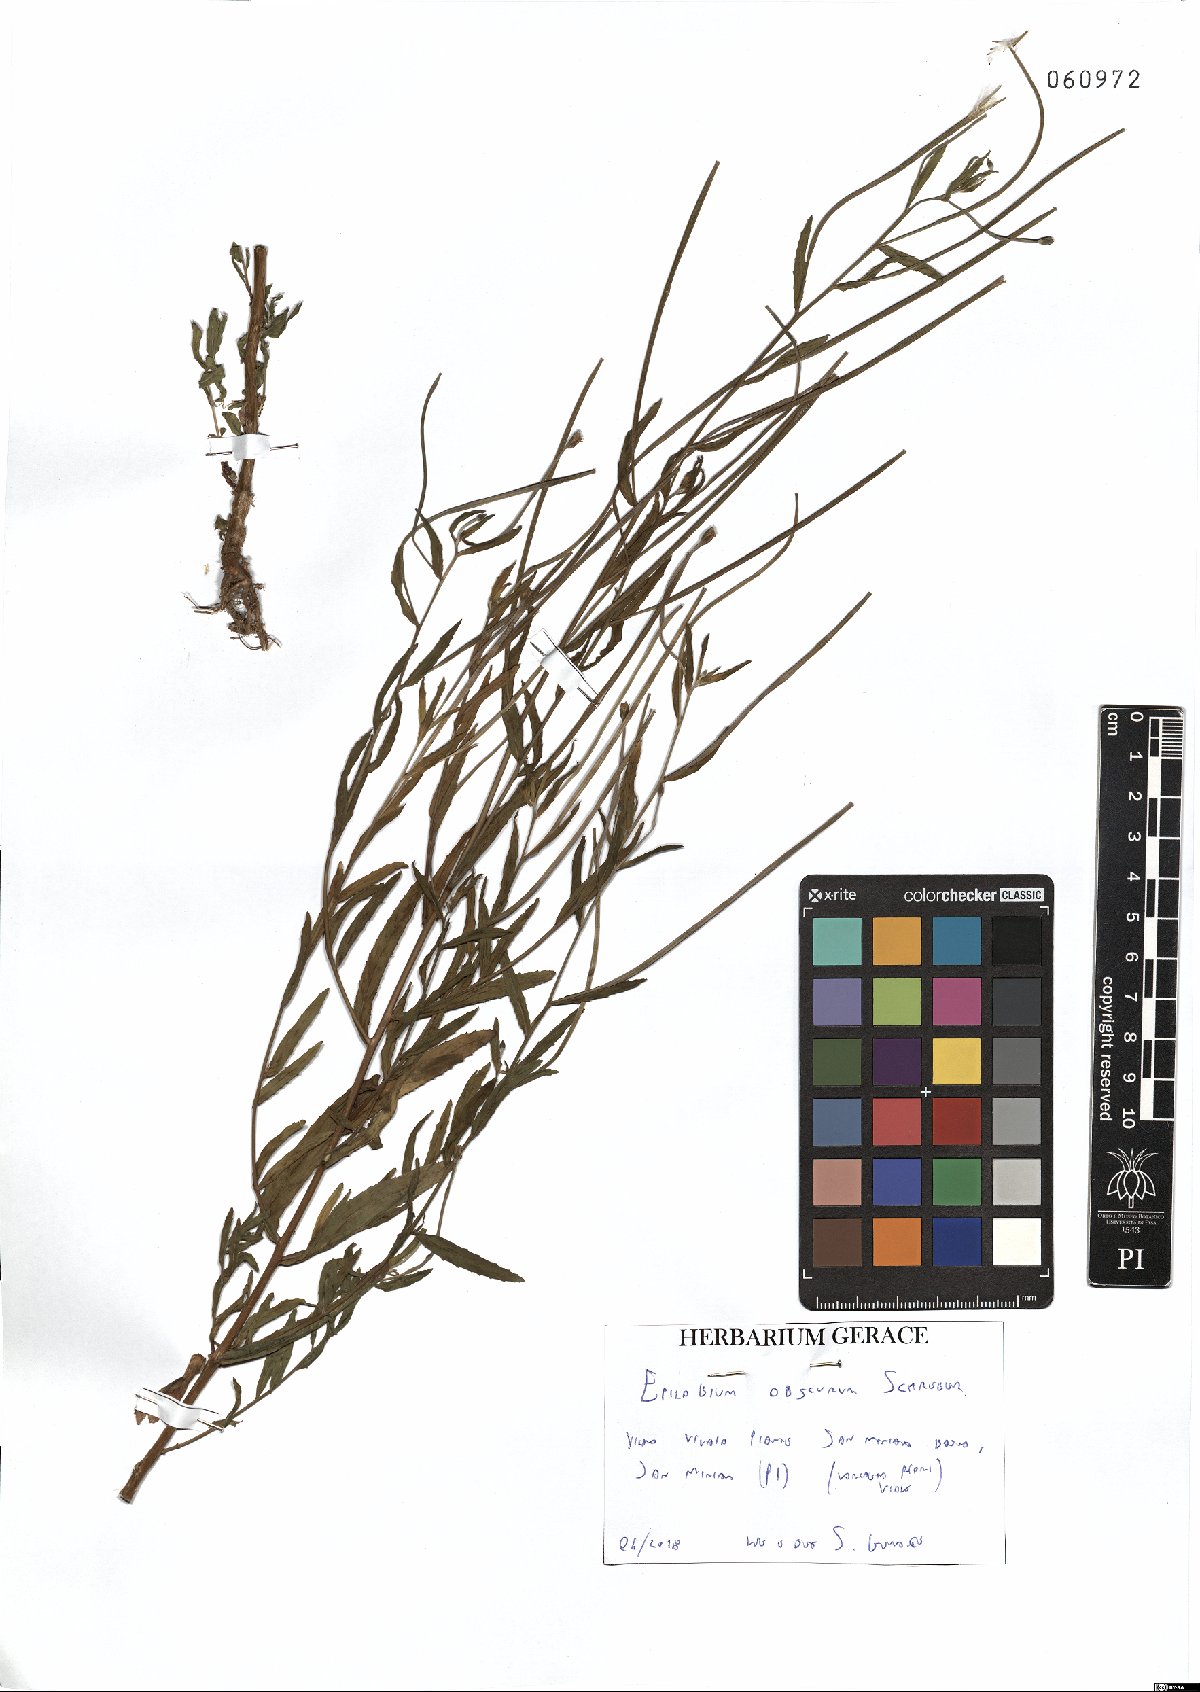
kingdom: Plantae
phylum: Tracheophyta
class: Magnoliopsida
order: Myrtales
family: Onagraceae
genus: Epilobium
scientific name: Epilobium obscurum
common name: Short-fruited willowherb
